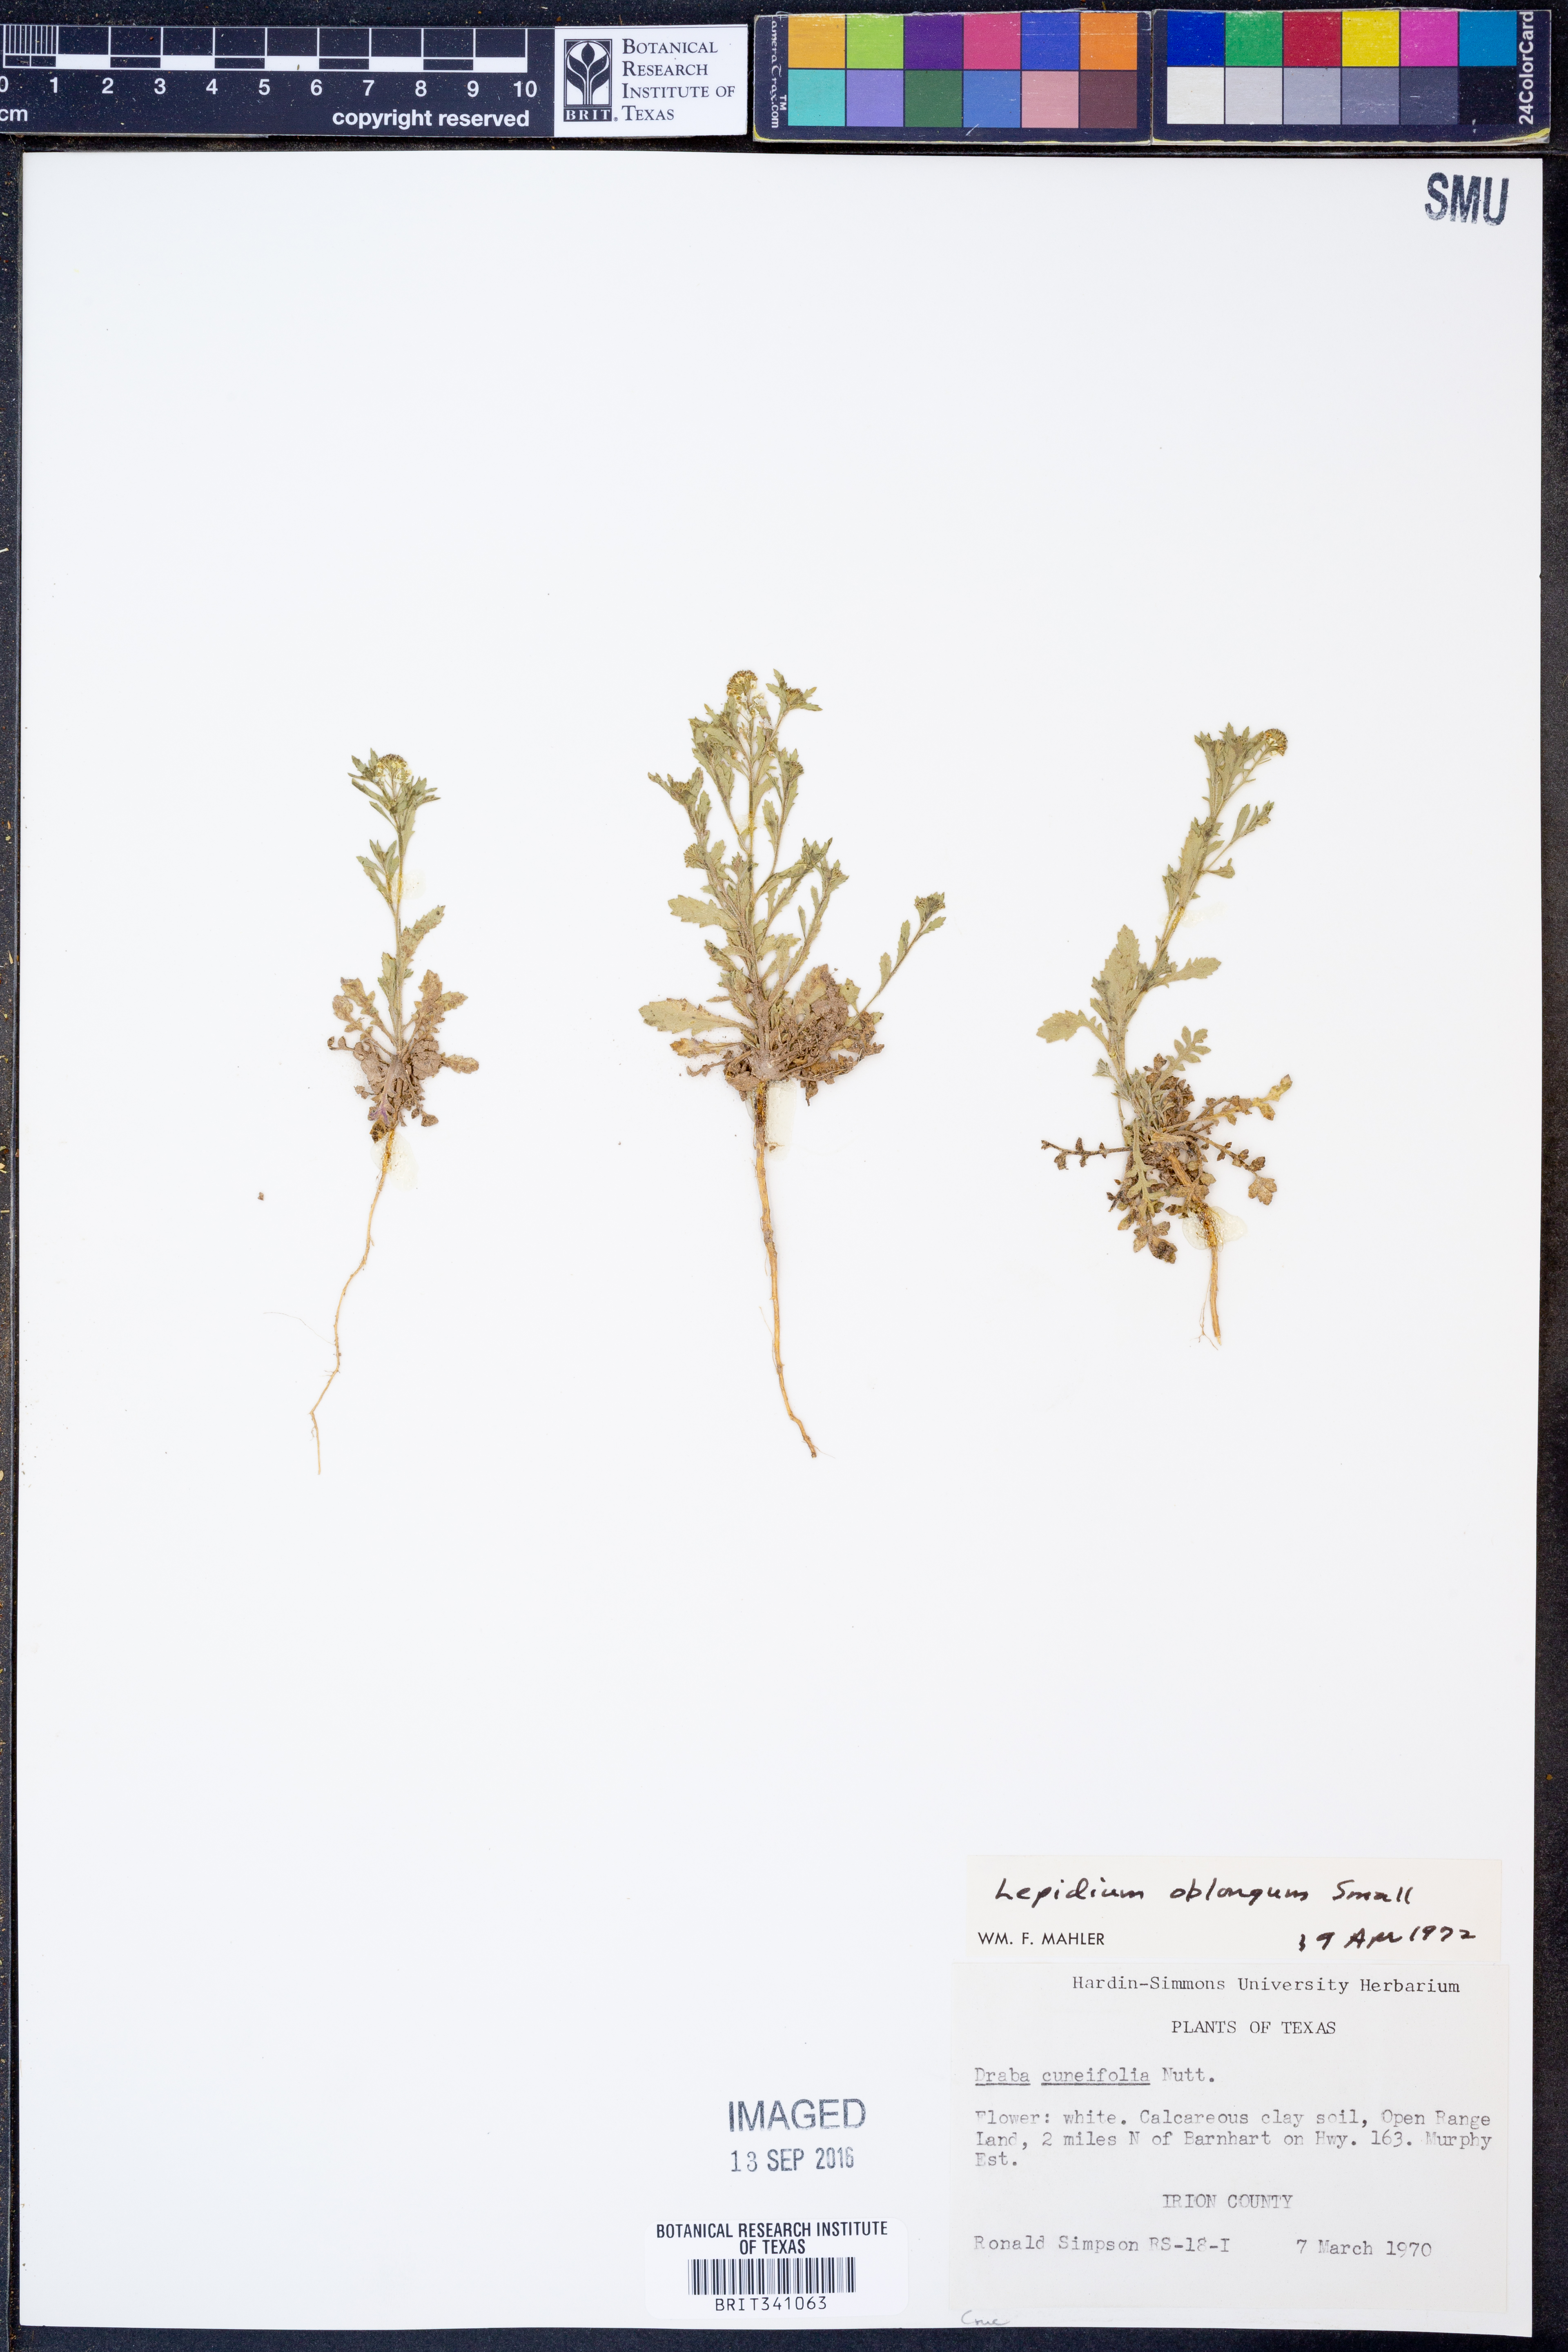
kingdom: Plantae
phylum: Tracheophyta
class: Magnoliopsida
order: Brassicales
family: Brassicaceae
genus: Lepidium
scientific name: Lepidium oblongum
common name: Veiny pepperweed
